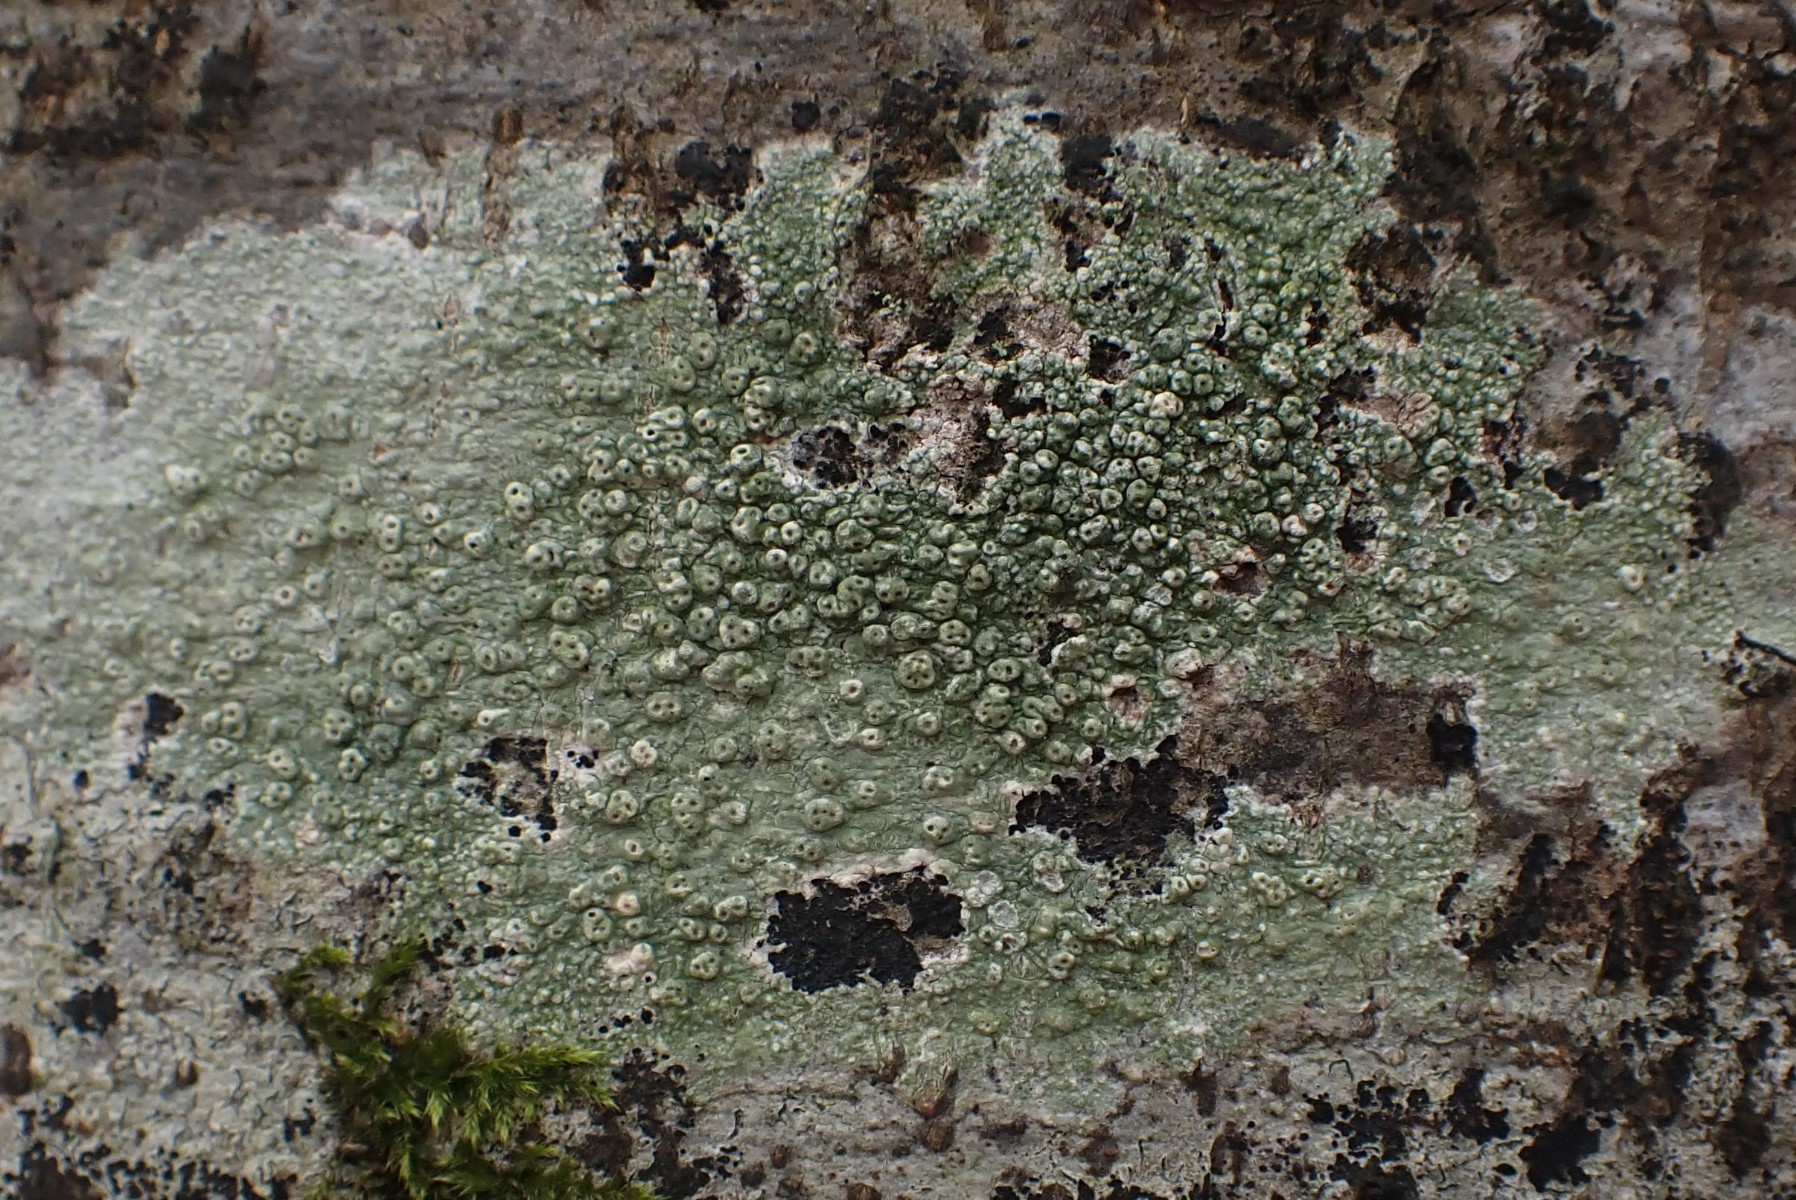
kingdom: Fungi
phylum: Ascomycota
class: Lecanoromycetes
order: Pertusariales
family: Pertusariaceae
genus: Pertusaria
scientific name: Pertusaria pertusa
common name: almindelig prikvortelav
